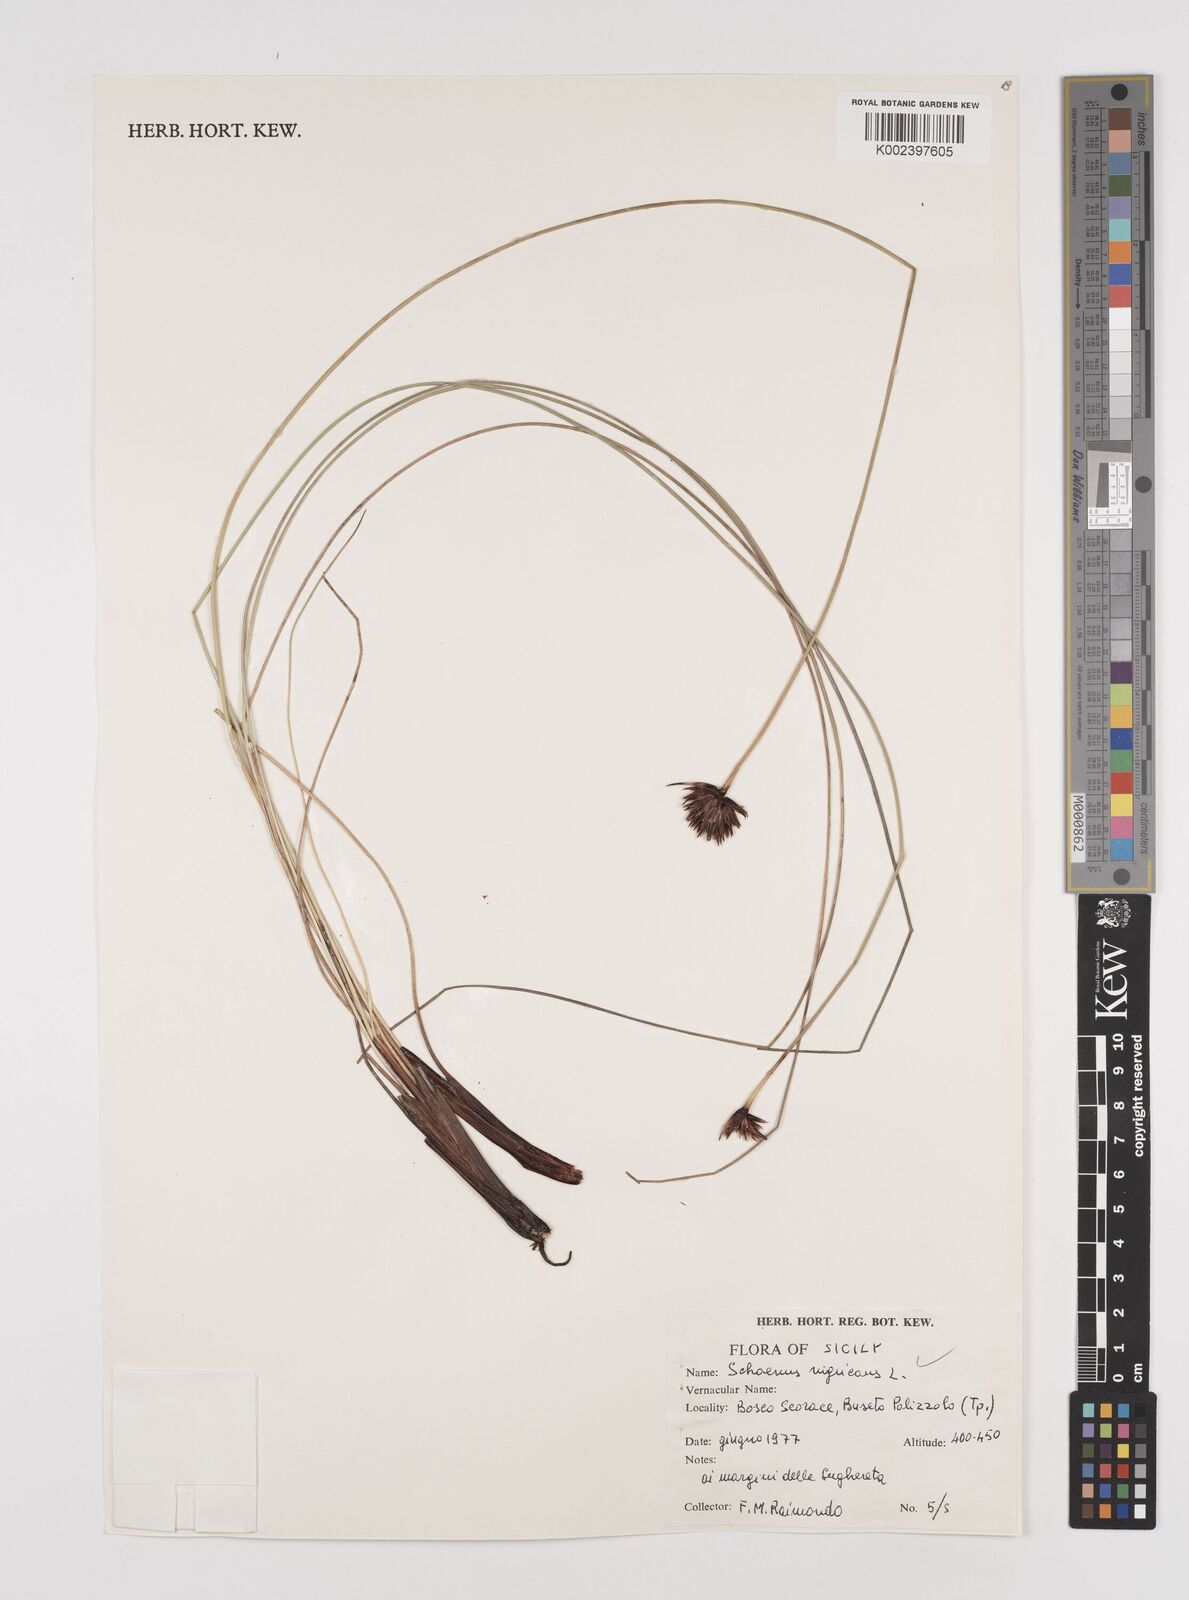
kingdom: Plantae
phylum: Tracheophyta
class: Liliopsida
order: Poales
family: Cyperaceae
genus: Schoenus
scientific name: Schoenus nigricans
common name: Black bog-rush
